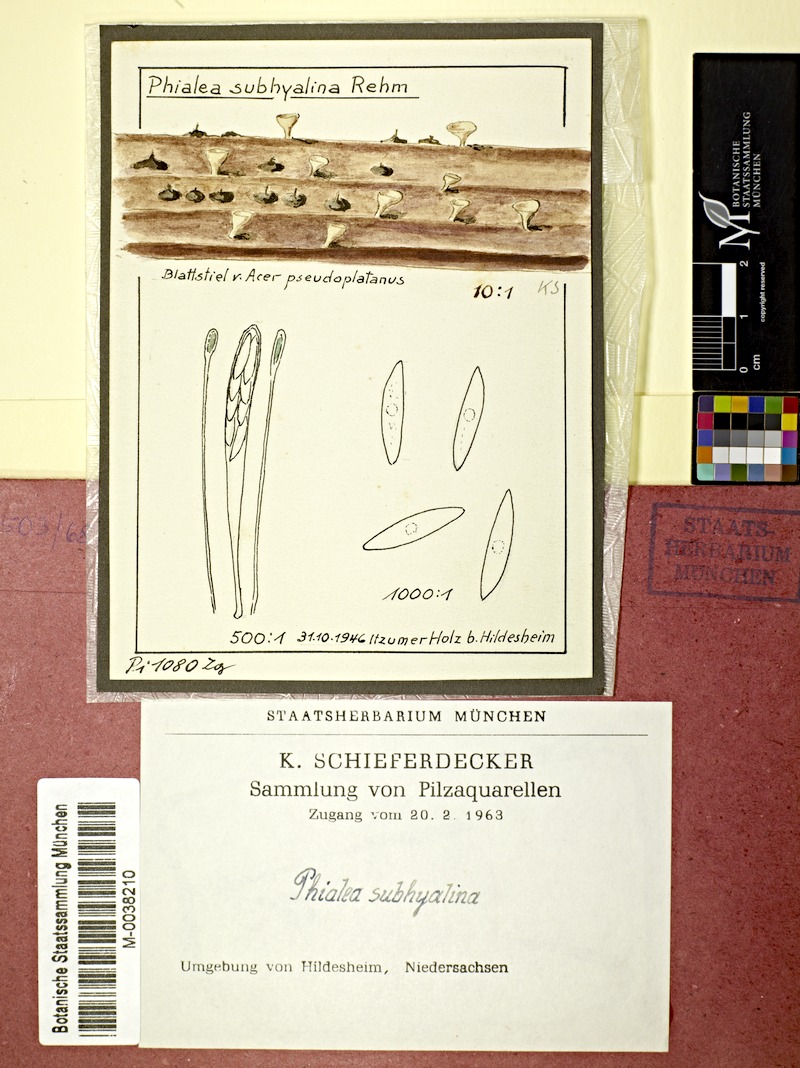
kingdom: Fungi
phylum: Ascomycota
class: Leotiomycetes
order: Helotiales
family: Pezizellaceae
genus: Allophylaria
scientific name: Allophylaria subhyalina
